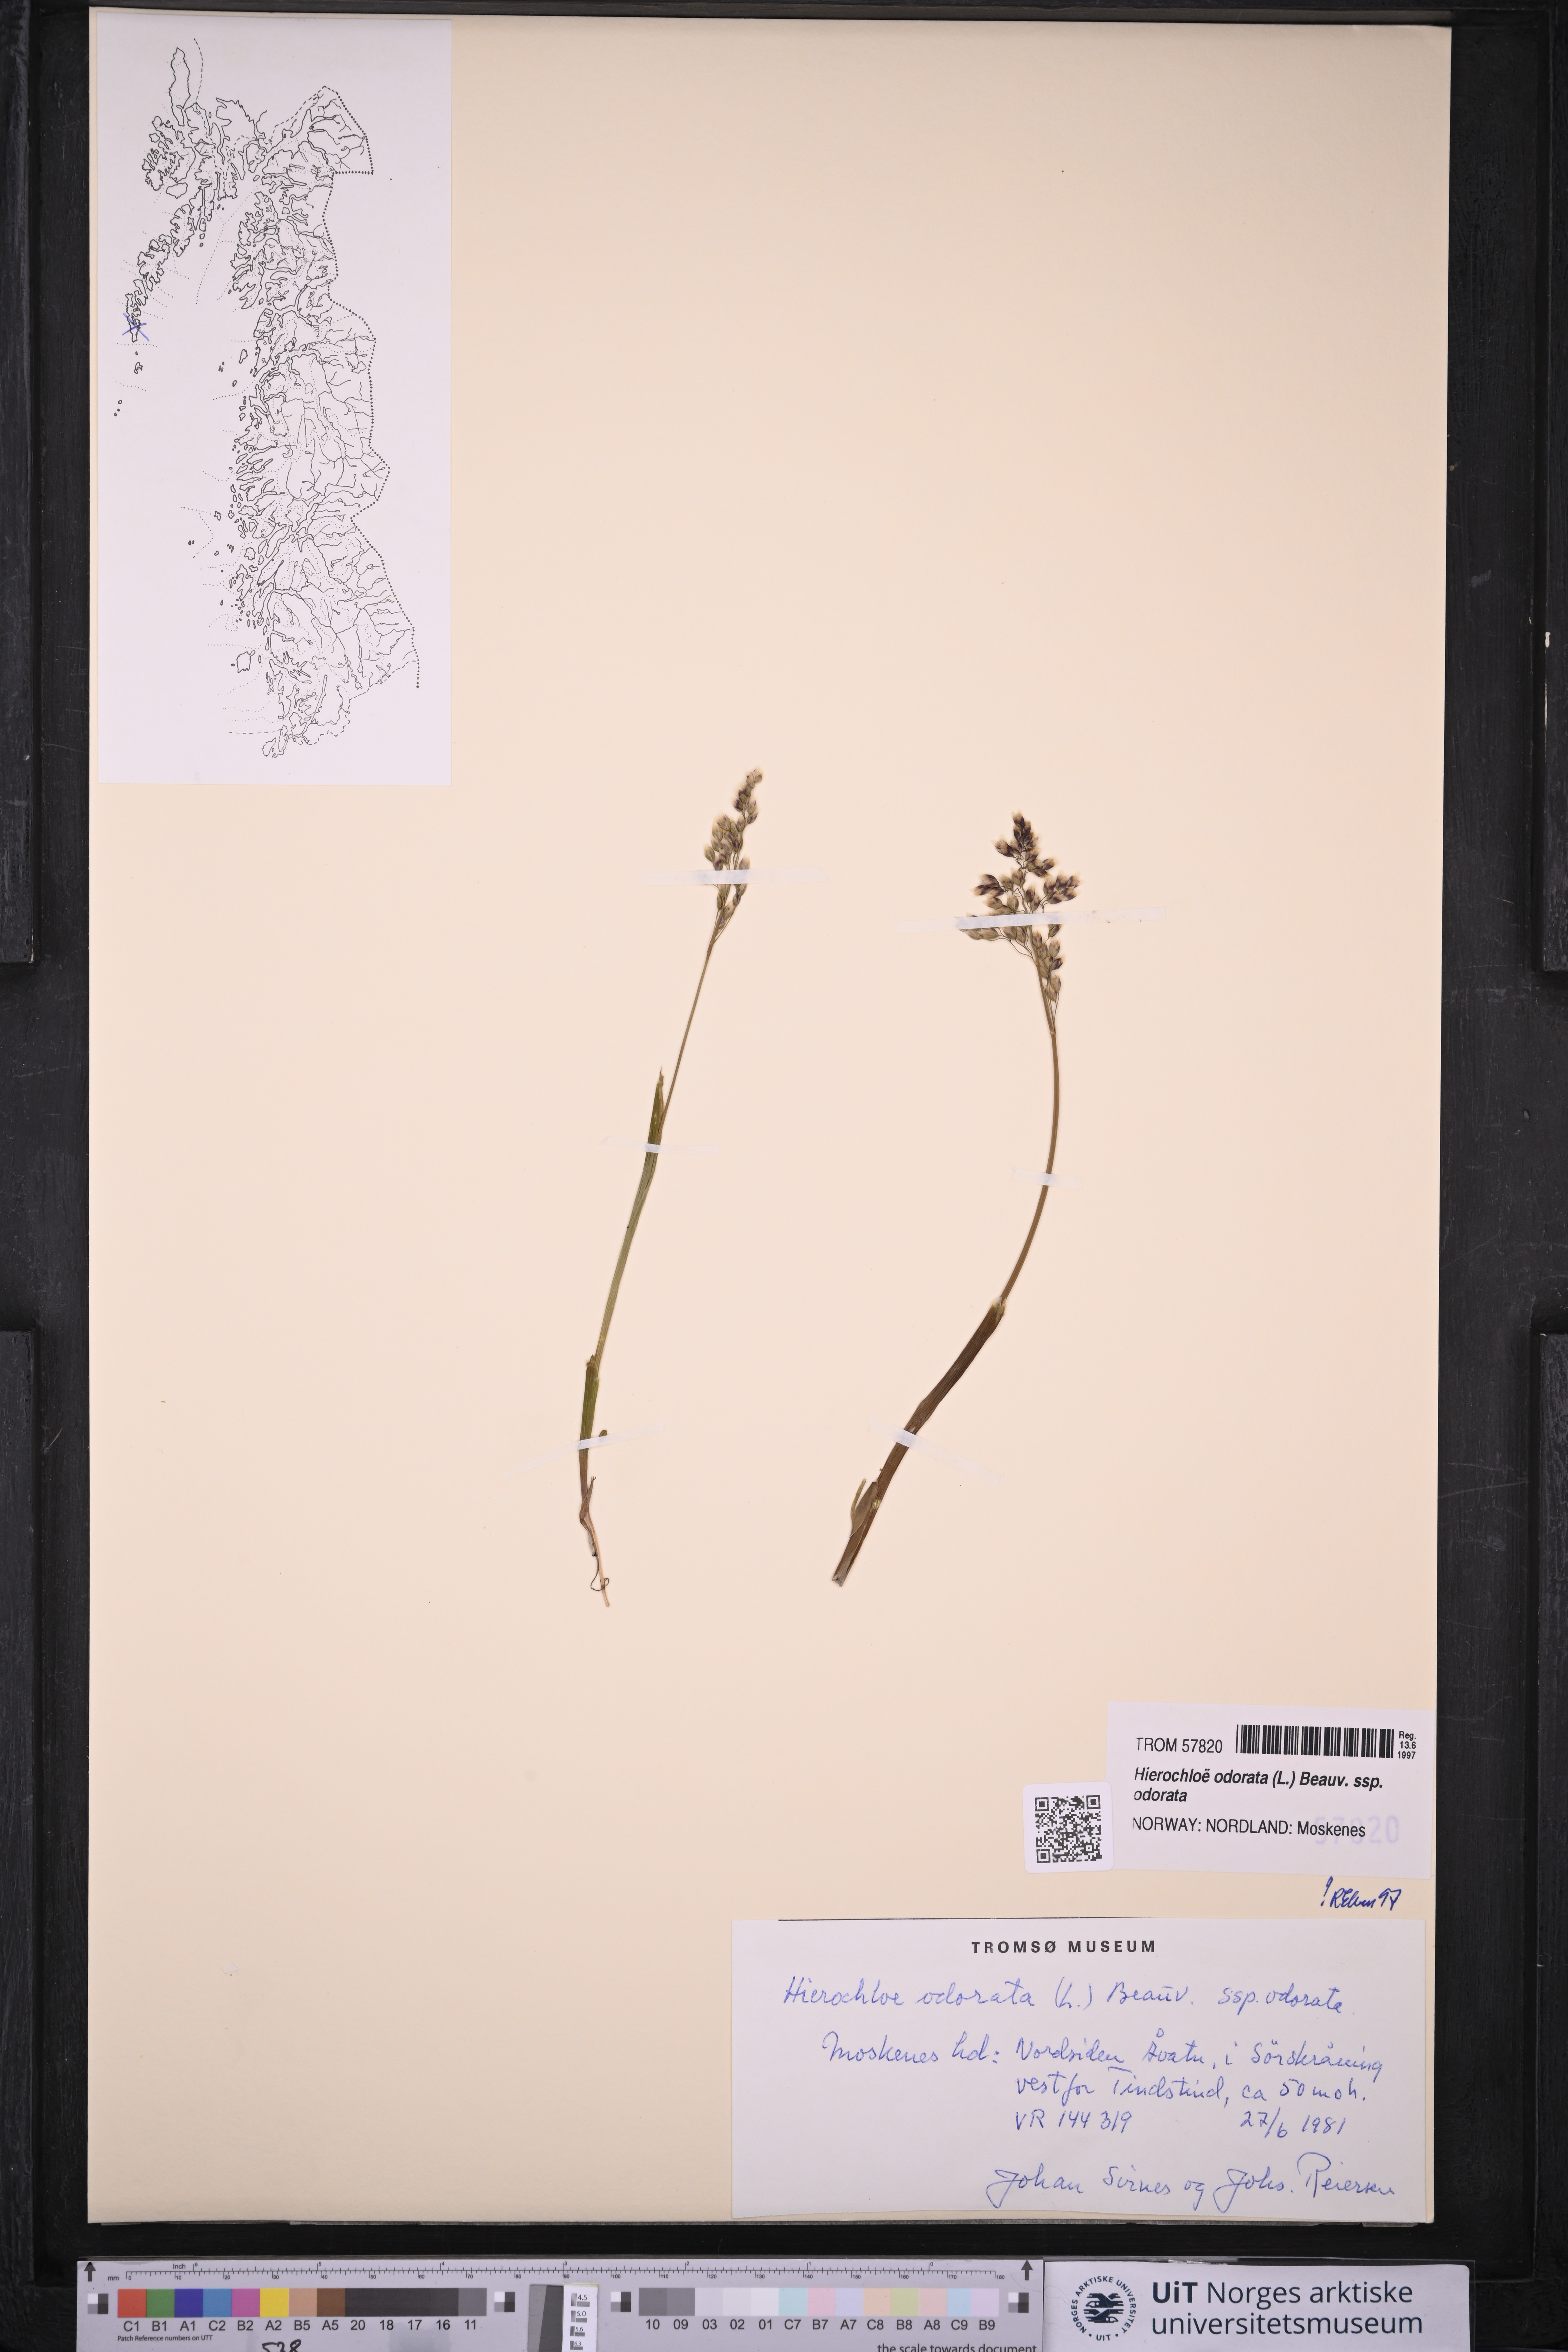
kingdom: Plantae
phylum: Tracheophyta
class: Liliopsida
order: Poales
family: Poaceae
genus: Anthoxanthum
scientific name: Anthoxanthum nitens
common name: Holy grass
